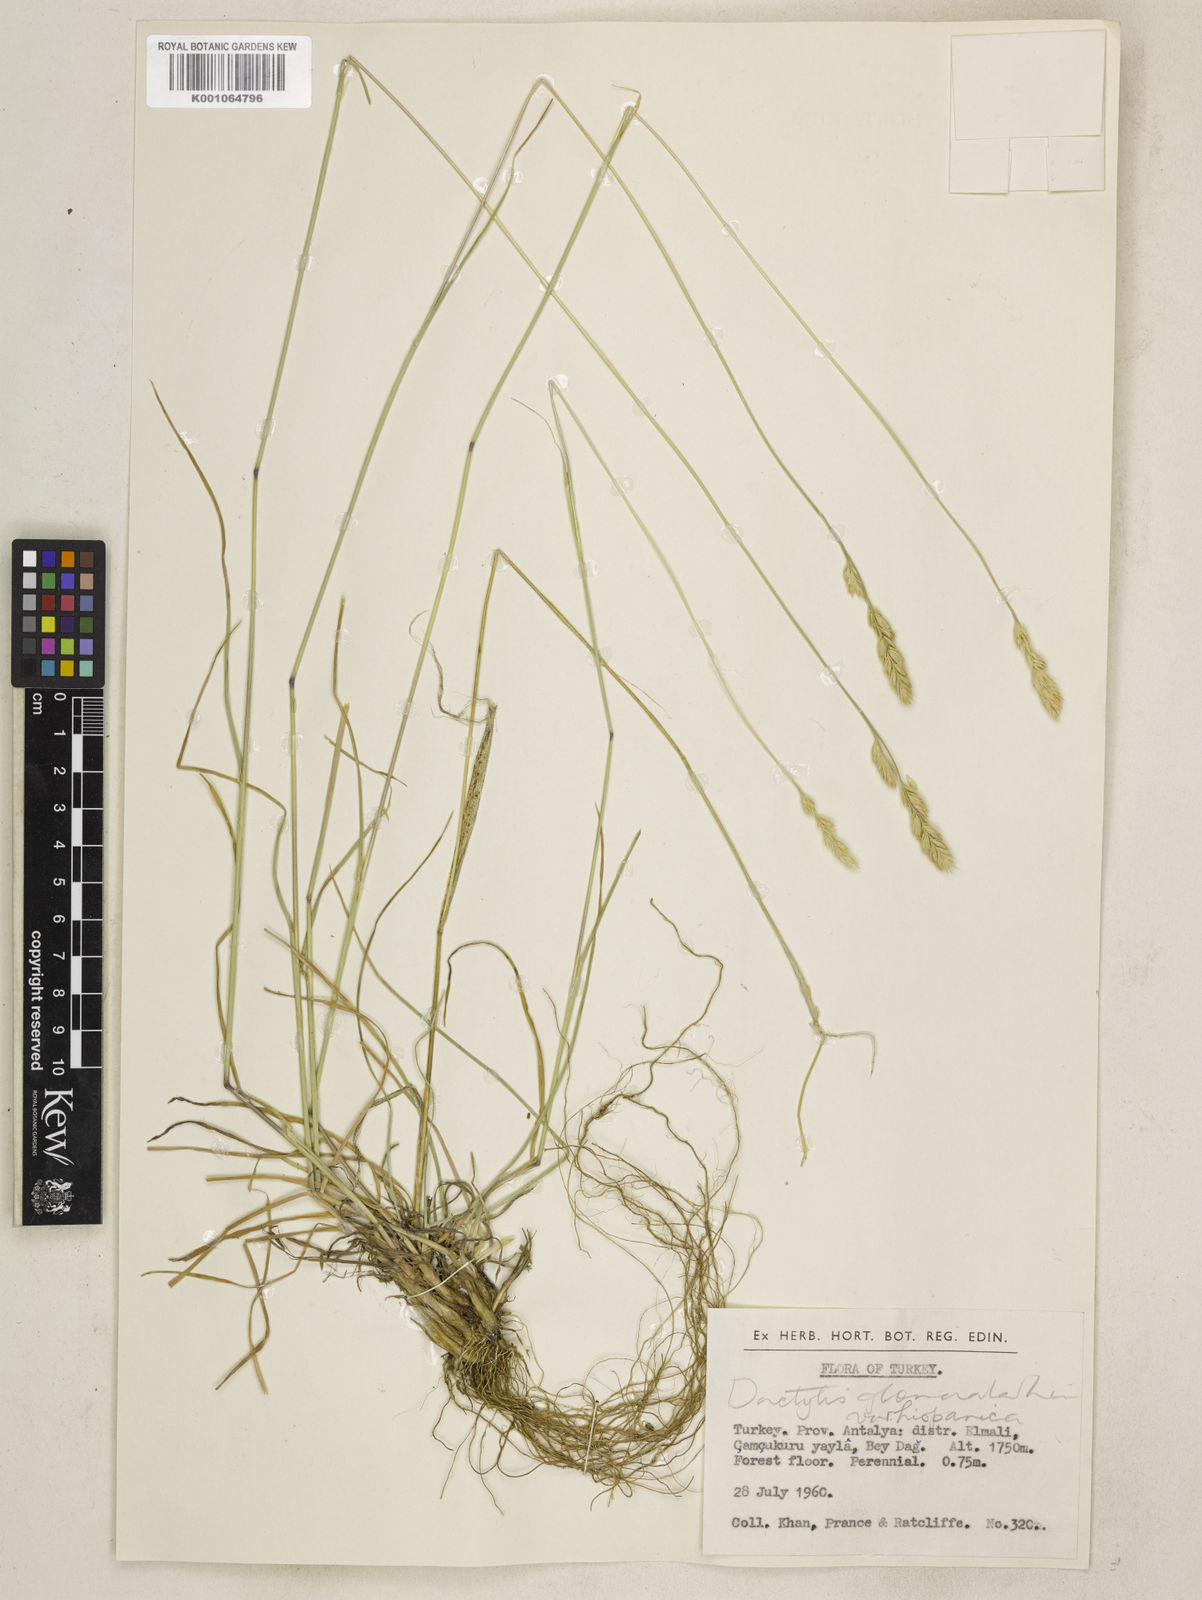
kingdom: Plantae
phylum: Tracheophyta
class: Liliopsida
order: Poales
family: Poaceae
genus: Dactylis
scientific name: Dactylis glomerata
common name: Orchardgrass
